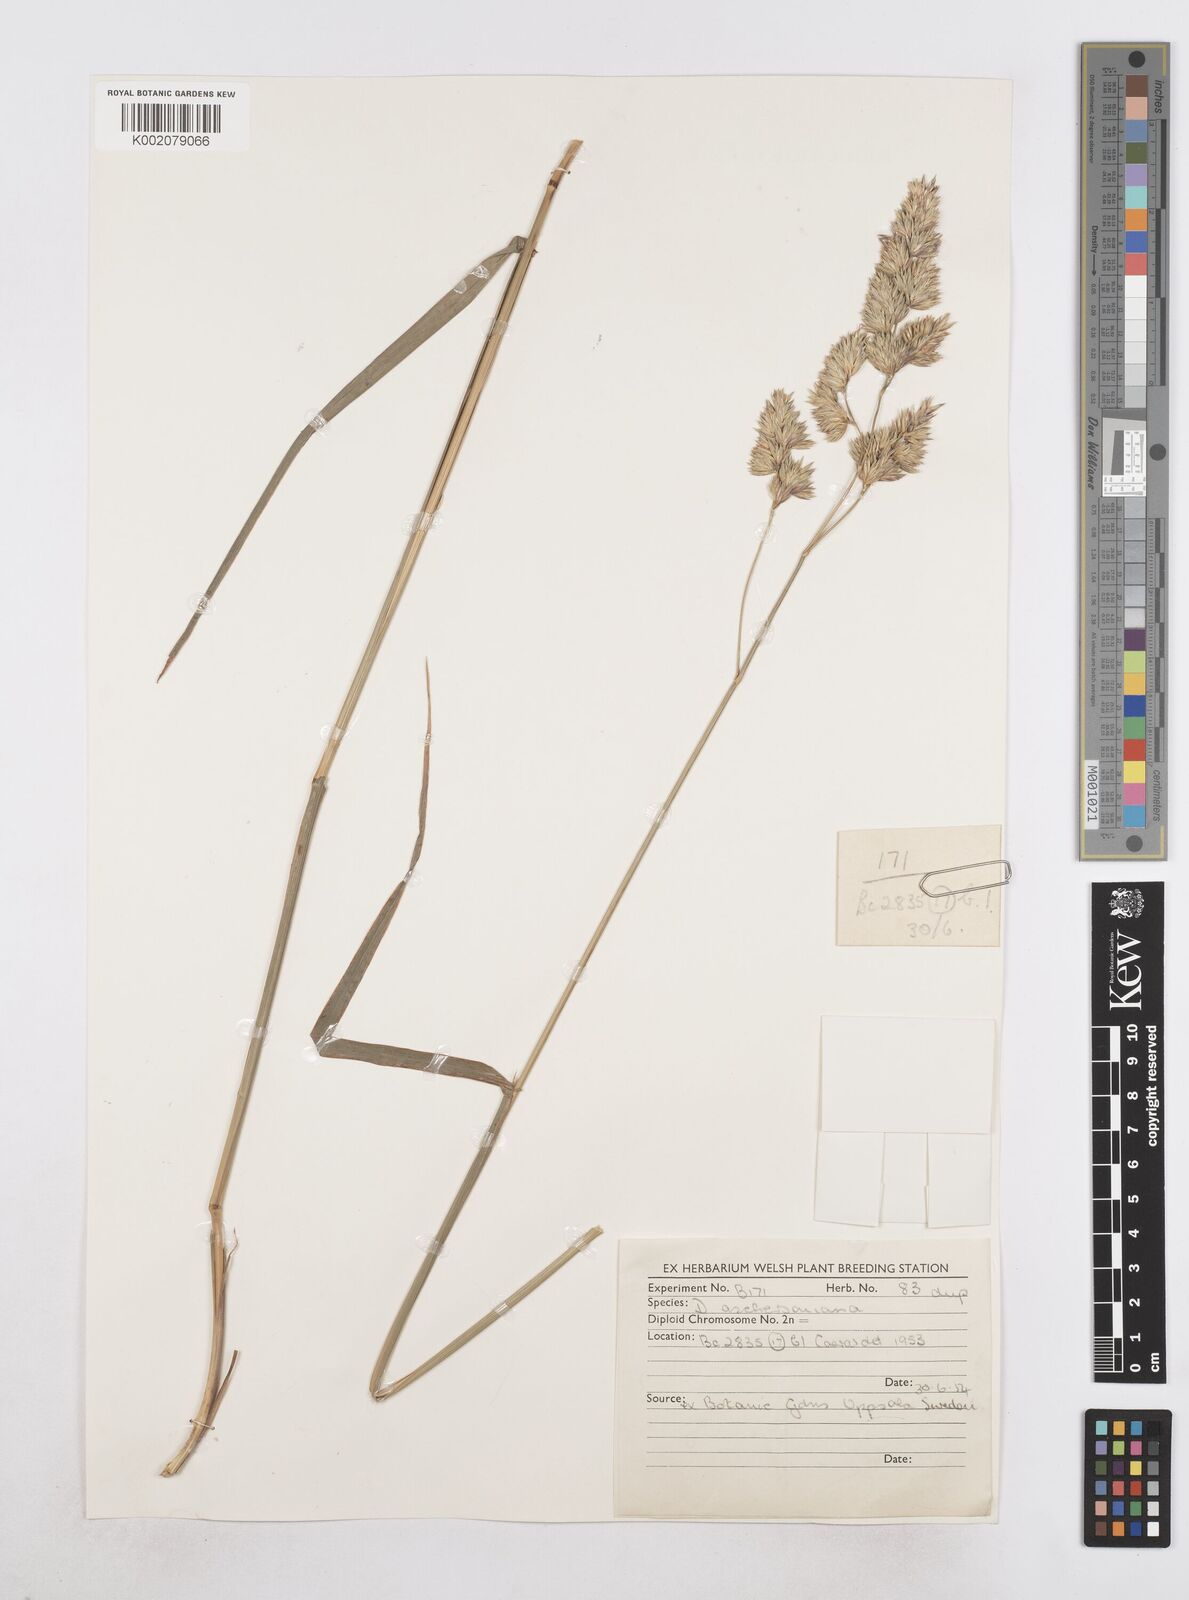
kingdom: Plantae
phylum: Tracheophyta
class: Liliopsida
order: Poales
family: Poaceae
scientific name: Poaceae
